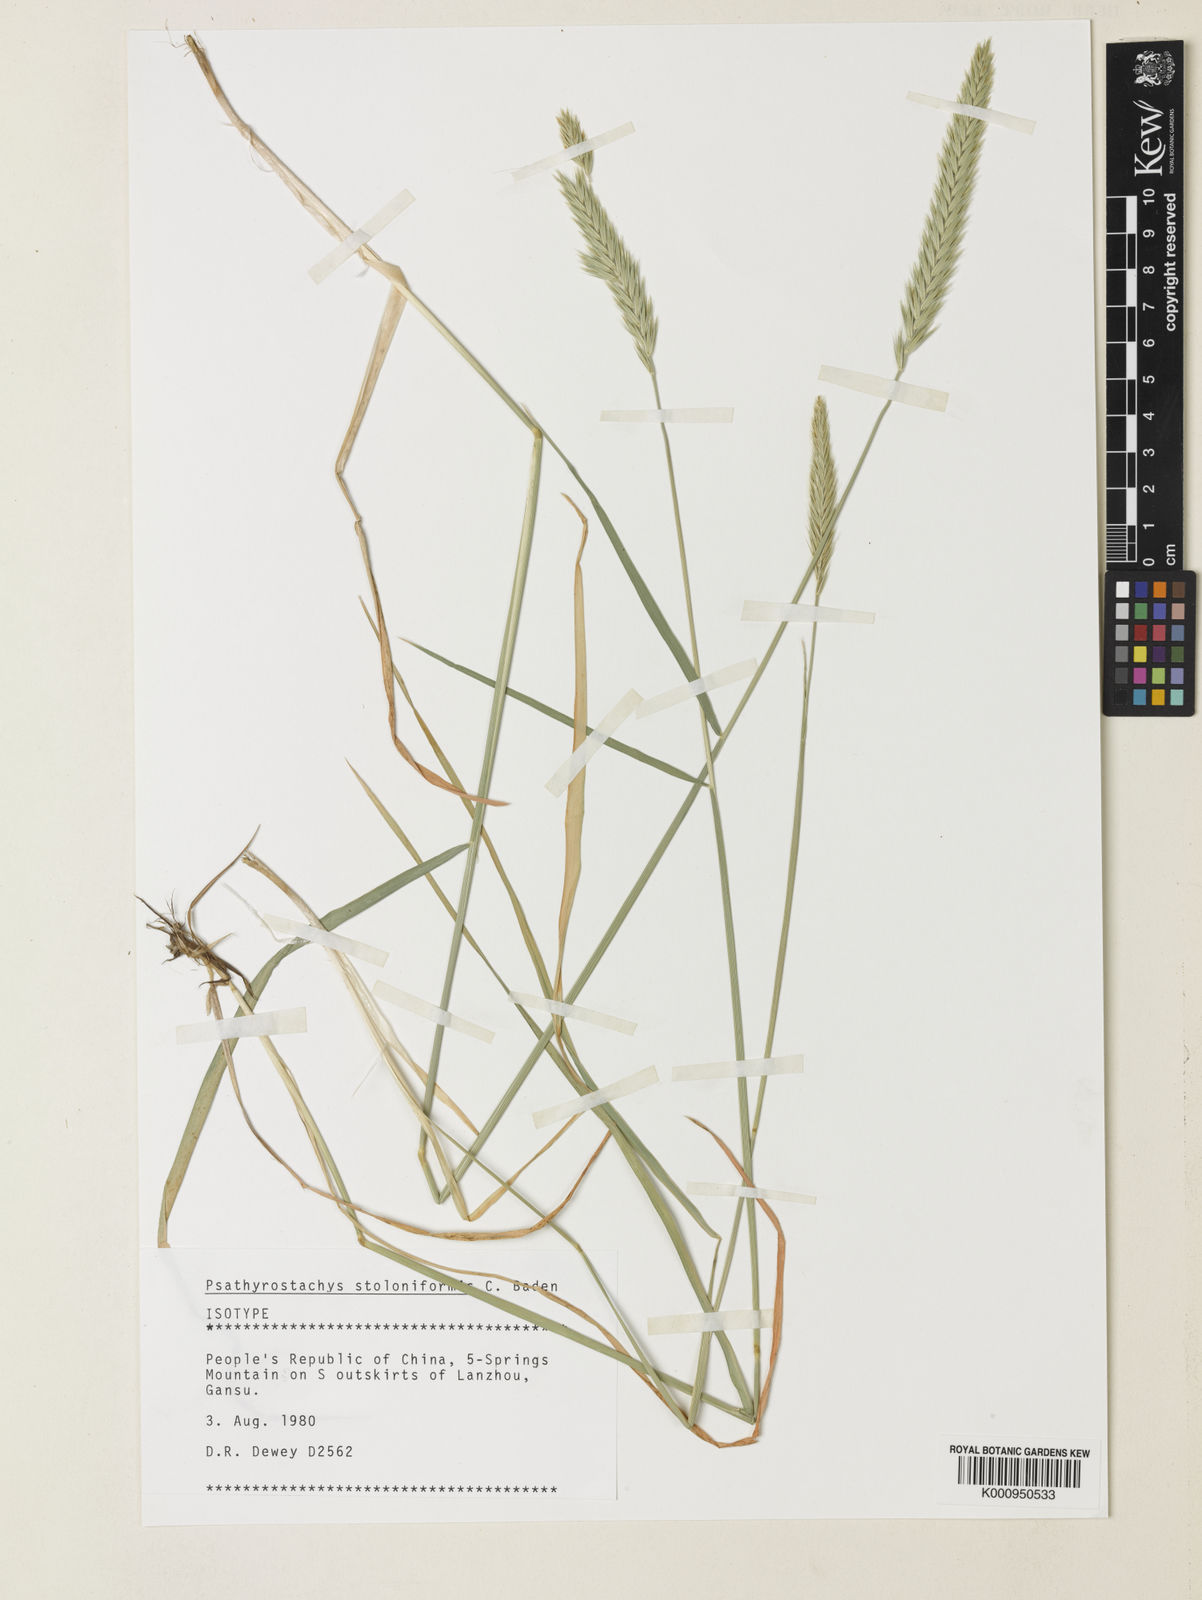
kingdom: Plantae
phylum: Tracheophyta
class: Liliopsida
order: Poales
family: Poaceae
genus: Psathyrostachys
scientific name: Psathyrostachys stoloniformis
